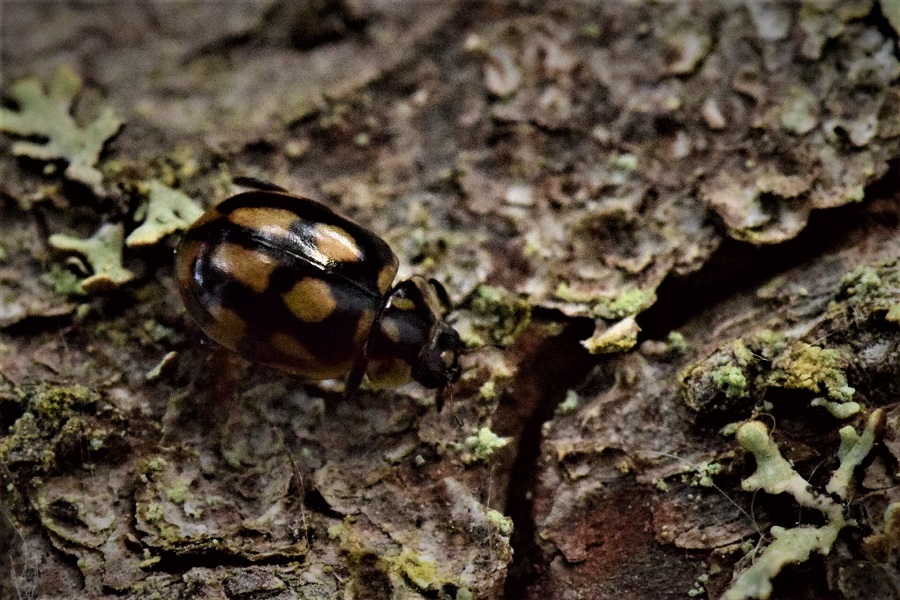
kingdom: Animalia
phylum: Arthropoda
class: Insecta
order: Coleoptera
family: Coccinellidae
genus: Adalia
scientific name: Adalia conglomerata
